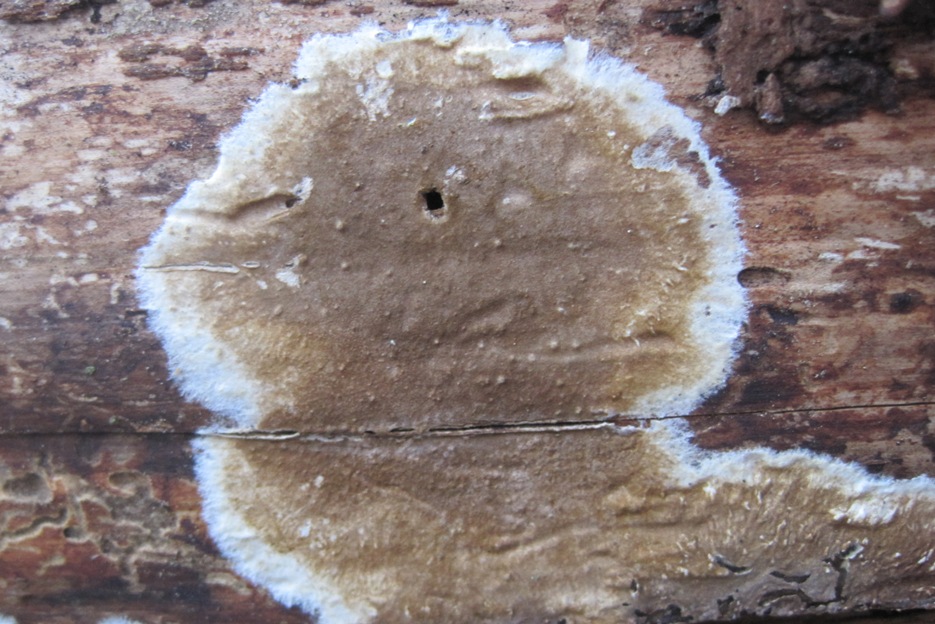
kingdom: Fungi
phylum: Basidiomycota
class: Agaricomycetes
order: Boletales
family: Coniophoraceae
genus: Coniophora
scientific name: Coniophora puteana
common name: gul tømmersvamp
